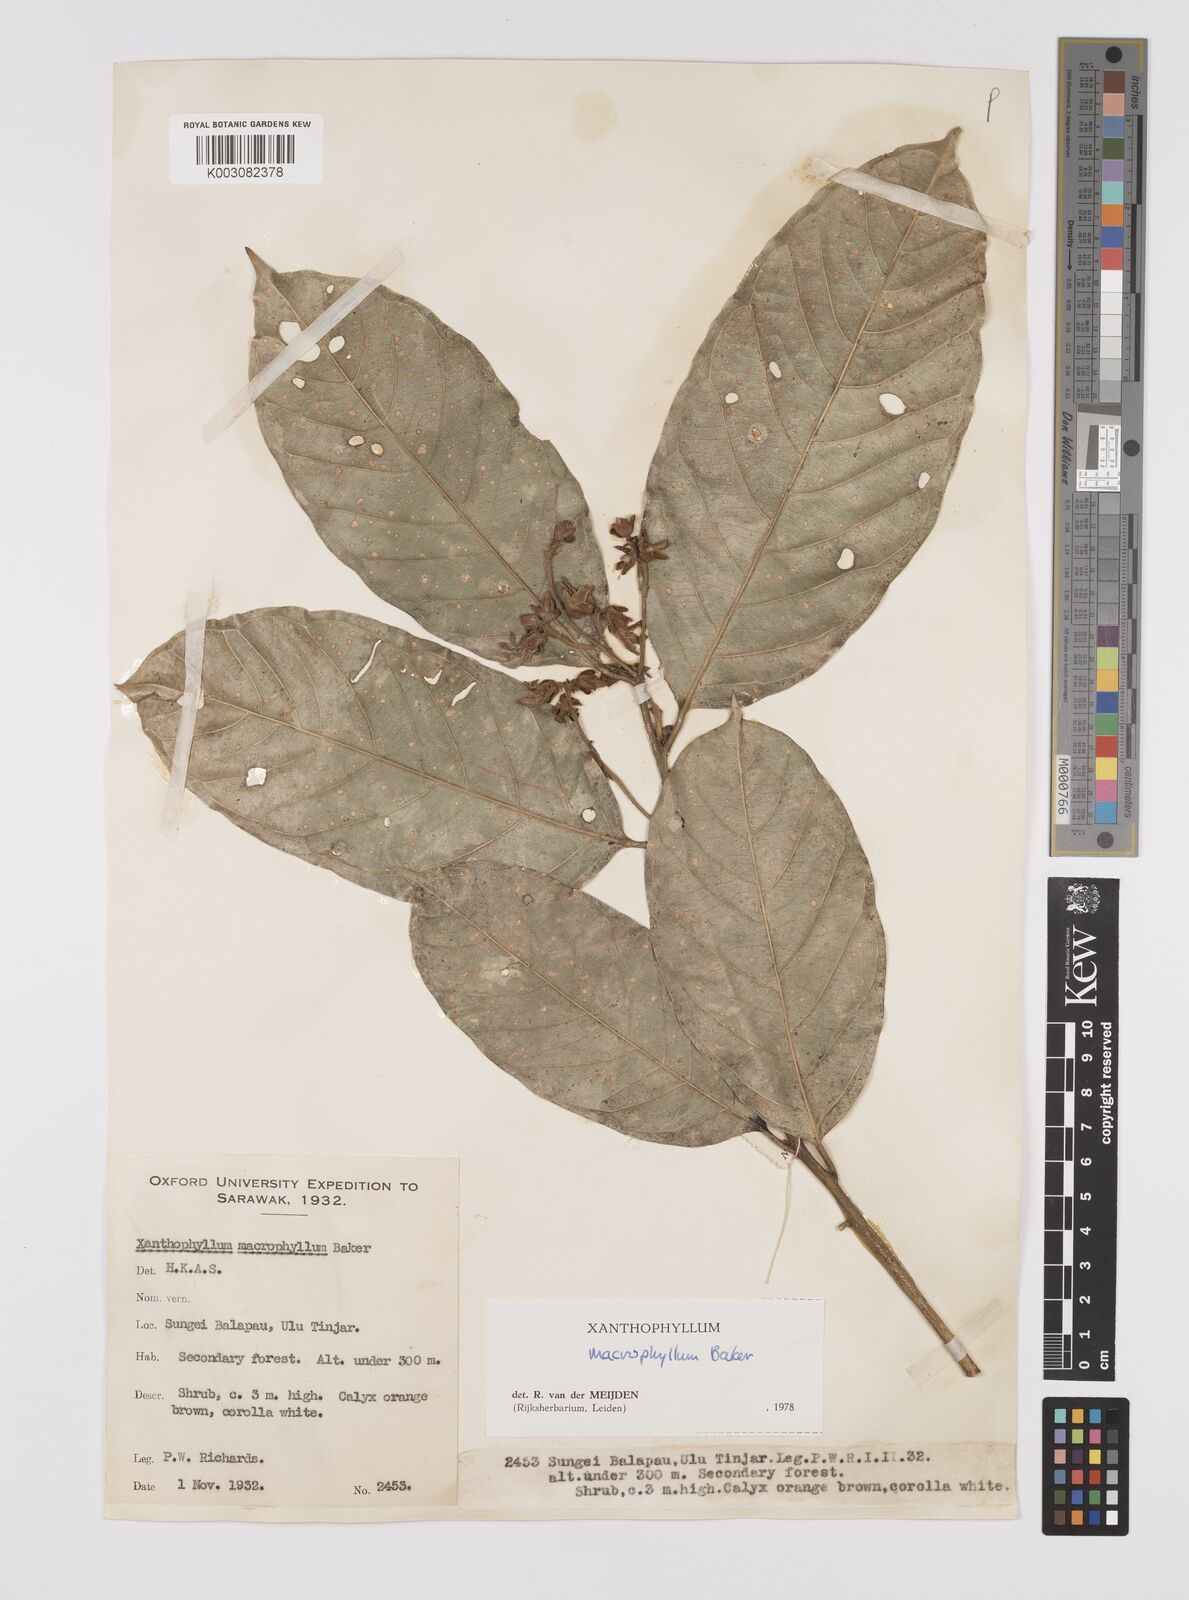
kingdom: Plantae
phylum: Tracheophyta
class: Magnoliopsida
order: Fabales
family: Polygalaceae
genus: Xanthophyllum
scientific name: Xanthophyllum macrophyllum
